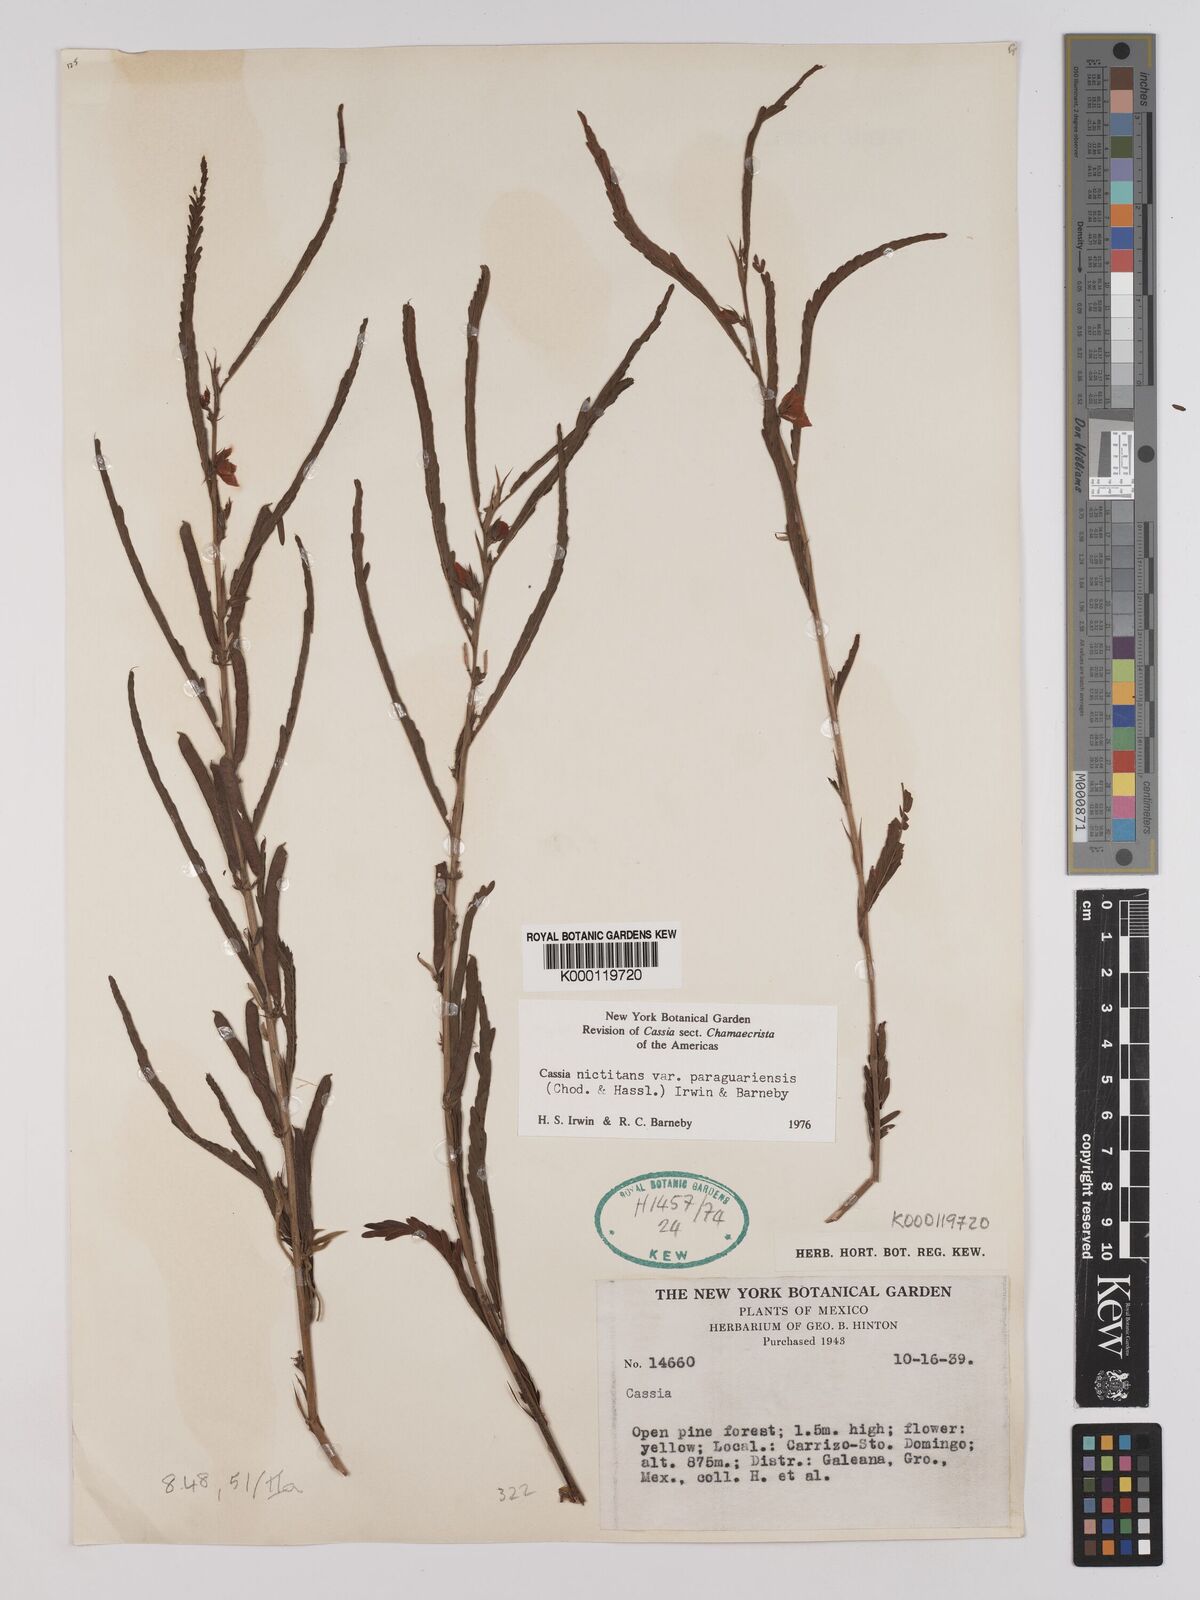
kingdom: Plantae
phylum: Tracheophyta
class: Magnoliopsida
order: Fabales
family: Fabaceae
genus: Chamaecrista
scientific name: Chamaecrista nictitans
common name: Sensitive cassia
